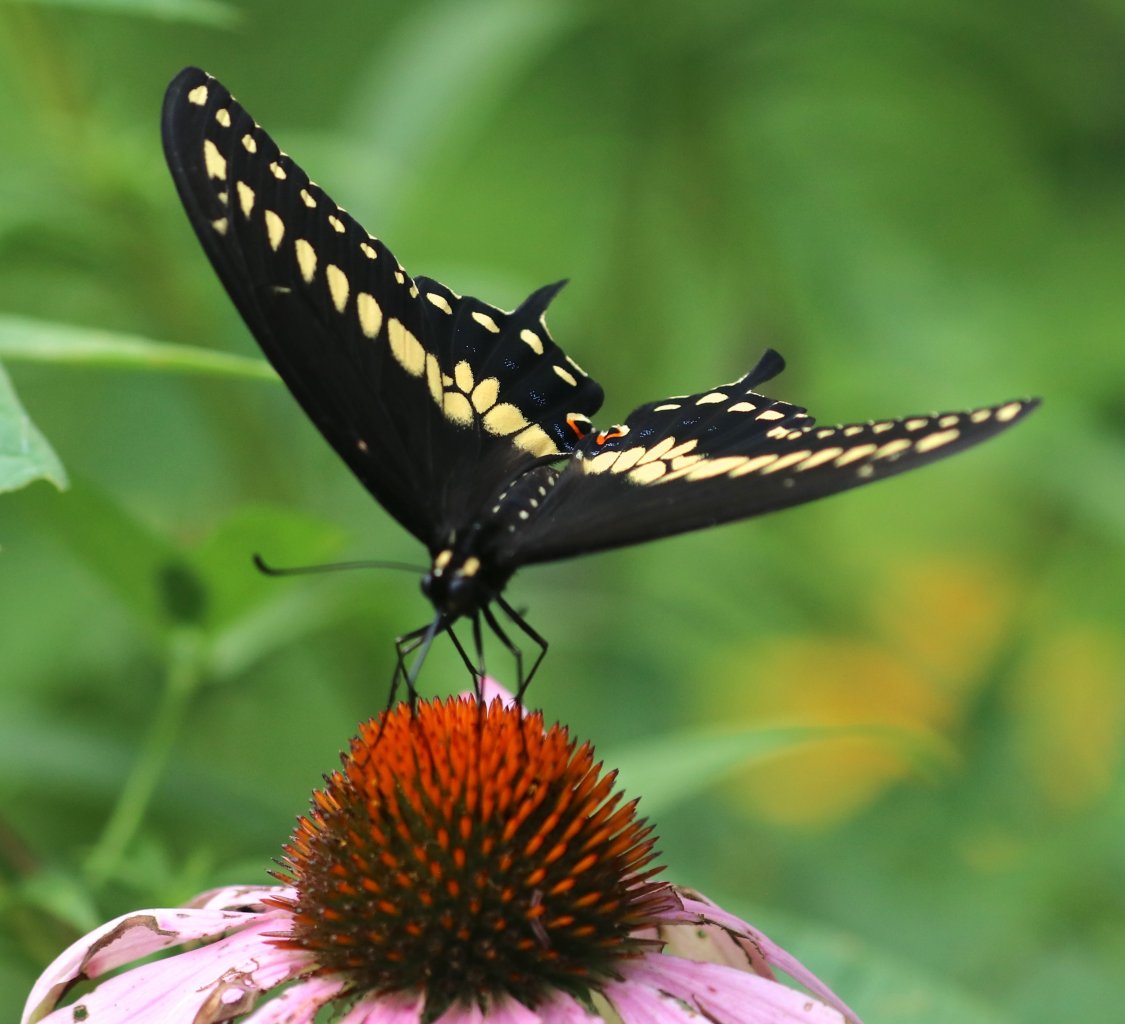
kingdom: Animalia
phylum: Arthropoda
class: Insecta
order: Lepidoptera
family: Papilionidae
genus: Papilio
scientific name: Papilio polyxenes
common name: Black Swallowtail
